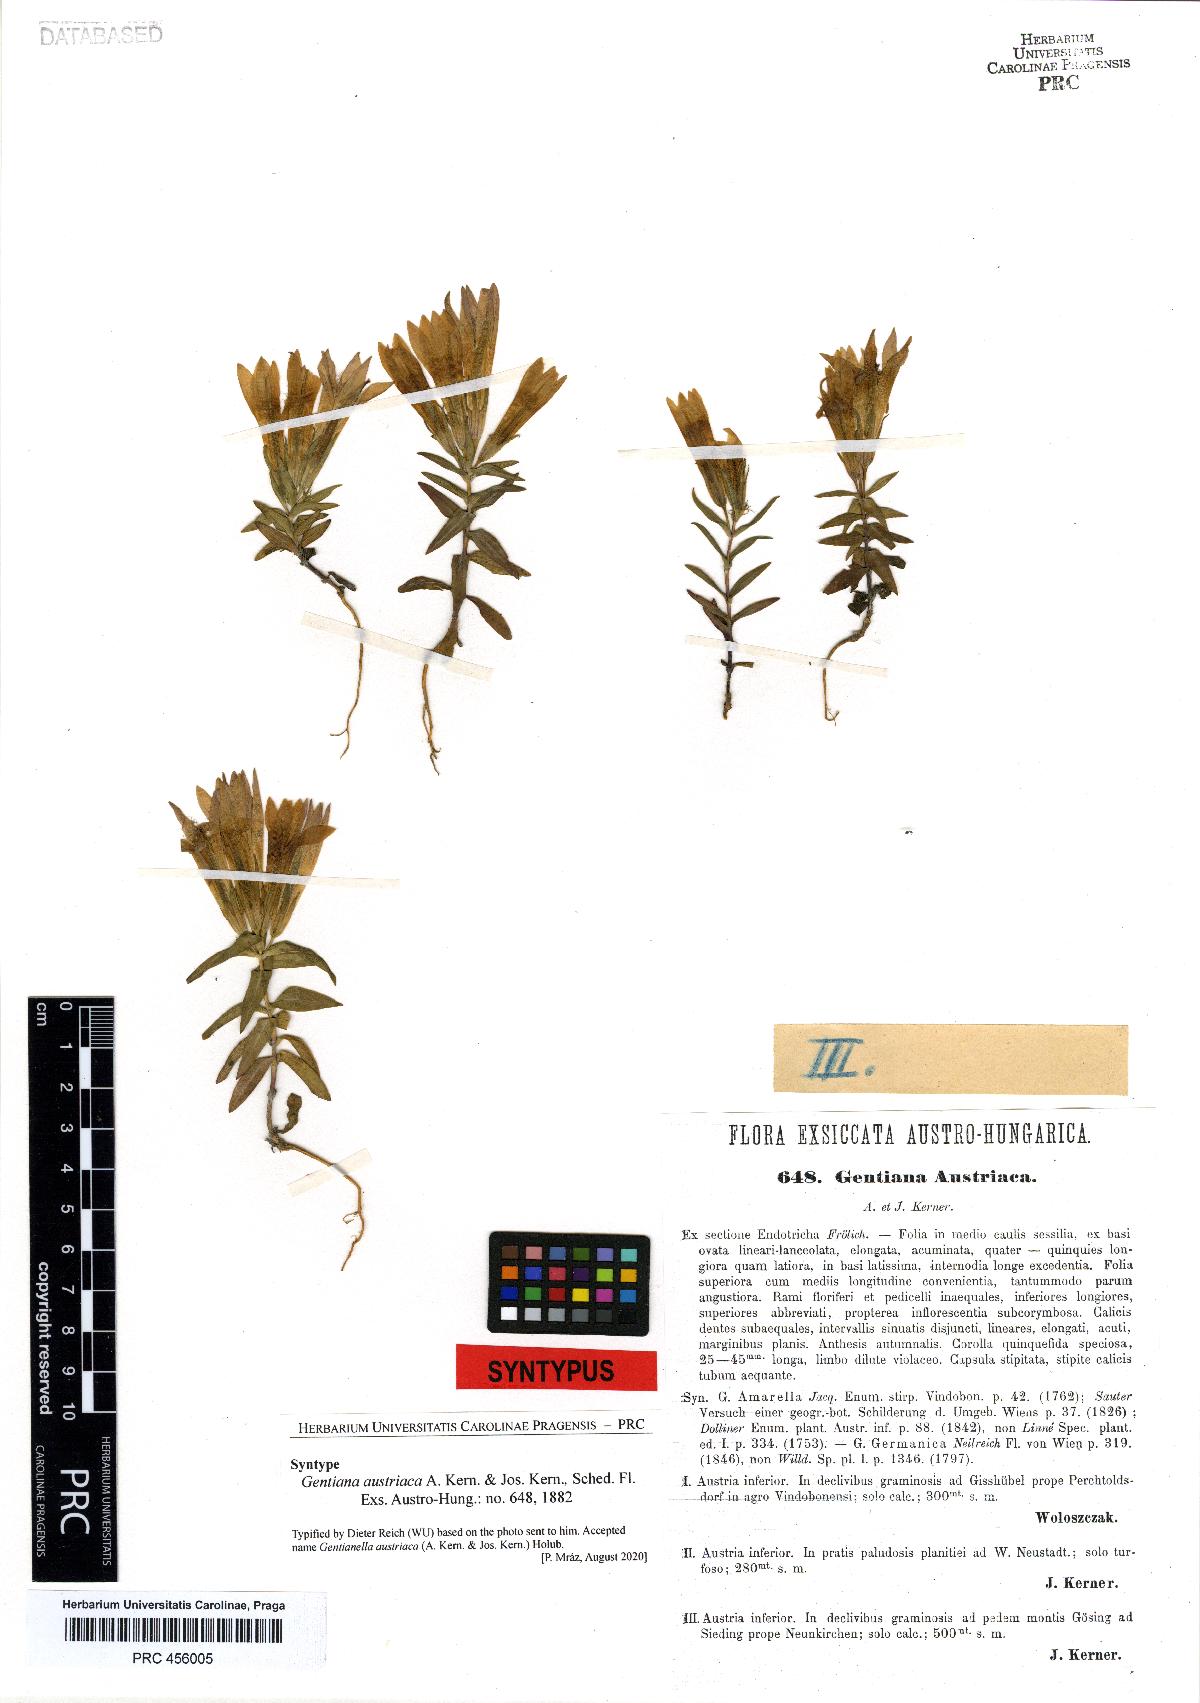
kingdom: Plantae
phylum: Tracheophyta
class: Magnoliopsida
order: Gentianales
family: Gentianaceae
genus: Gentianella
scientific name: Gentianella austriaca
